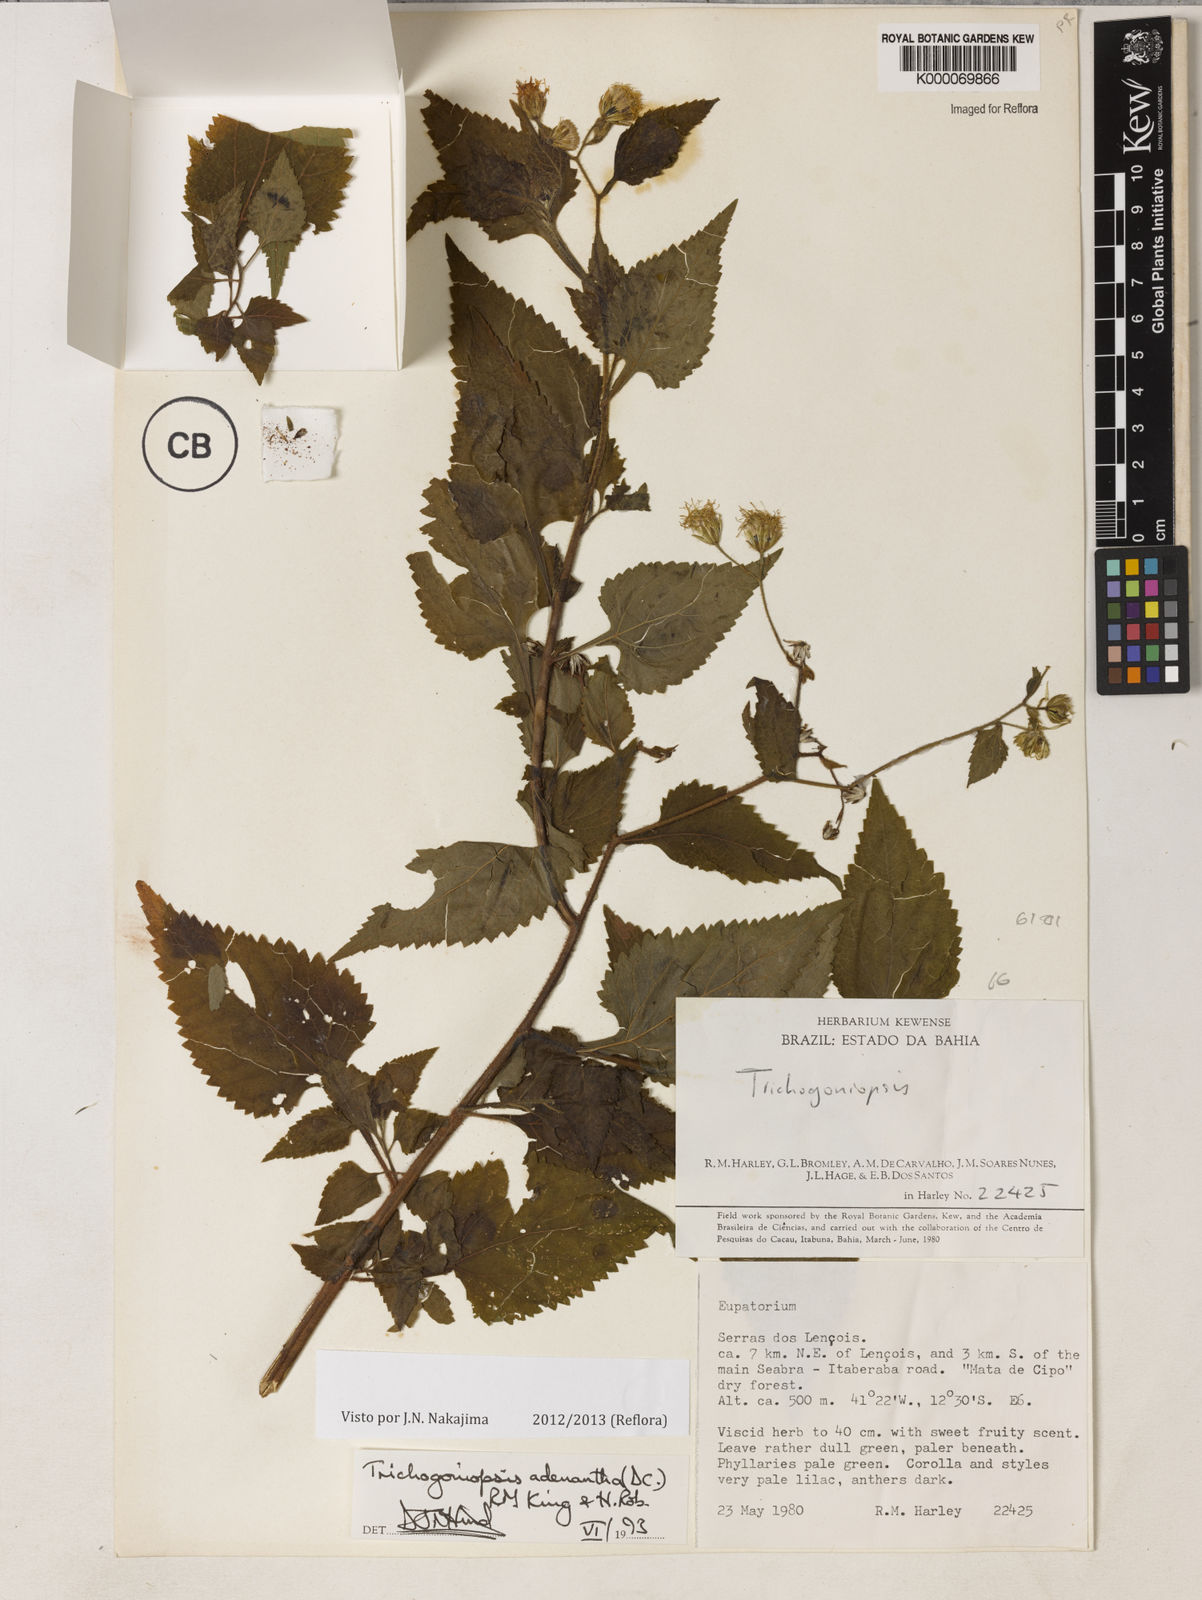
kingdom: Plantae
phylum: Tracheophyta
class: Magnoliopsida
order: Asterales
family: Asteraceae
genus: Trichogoniopsis
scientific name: Trichogoniopsis adenantha
